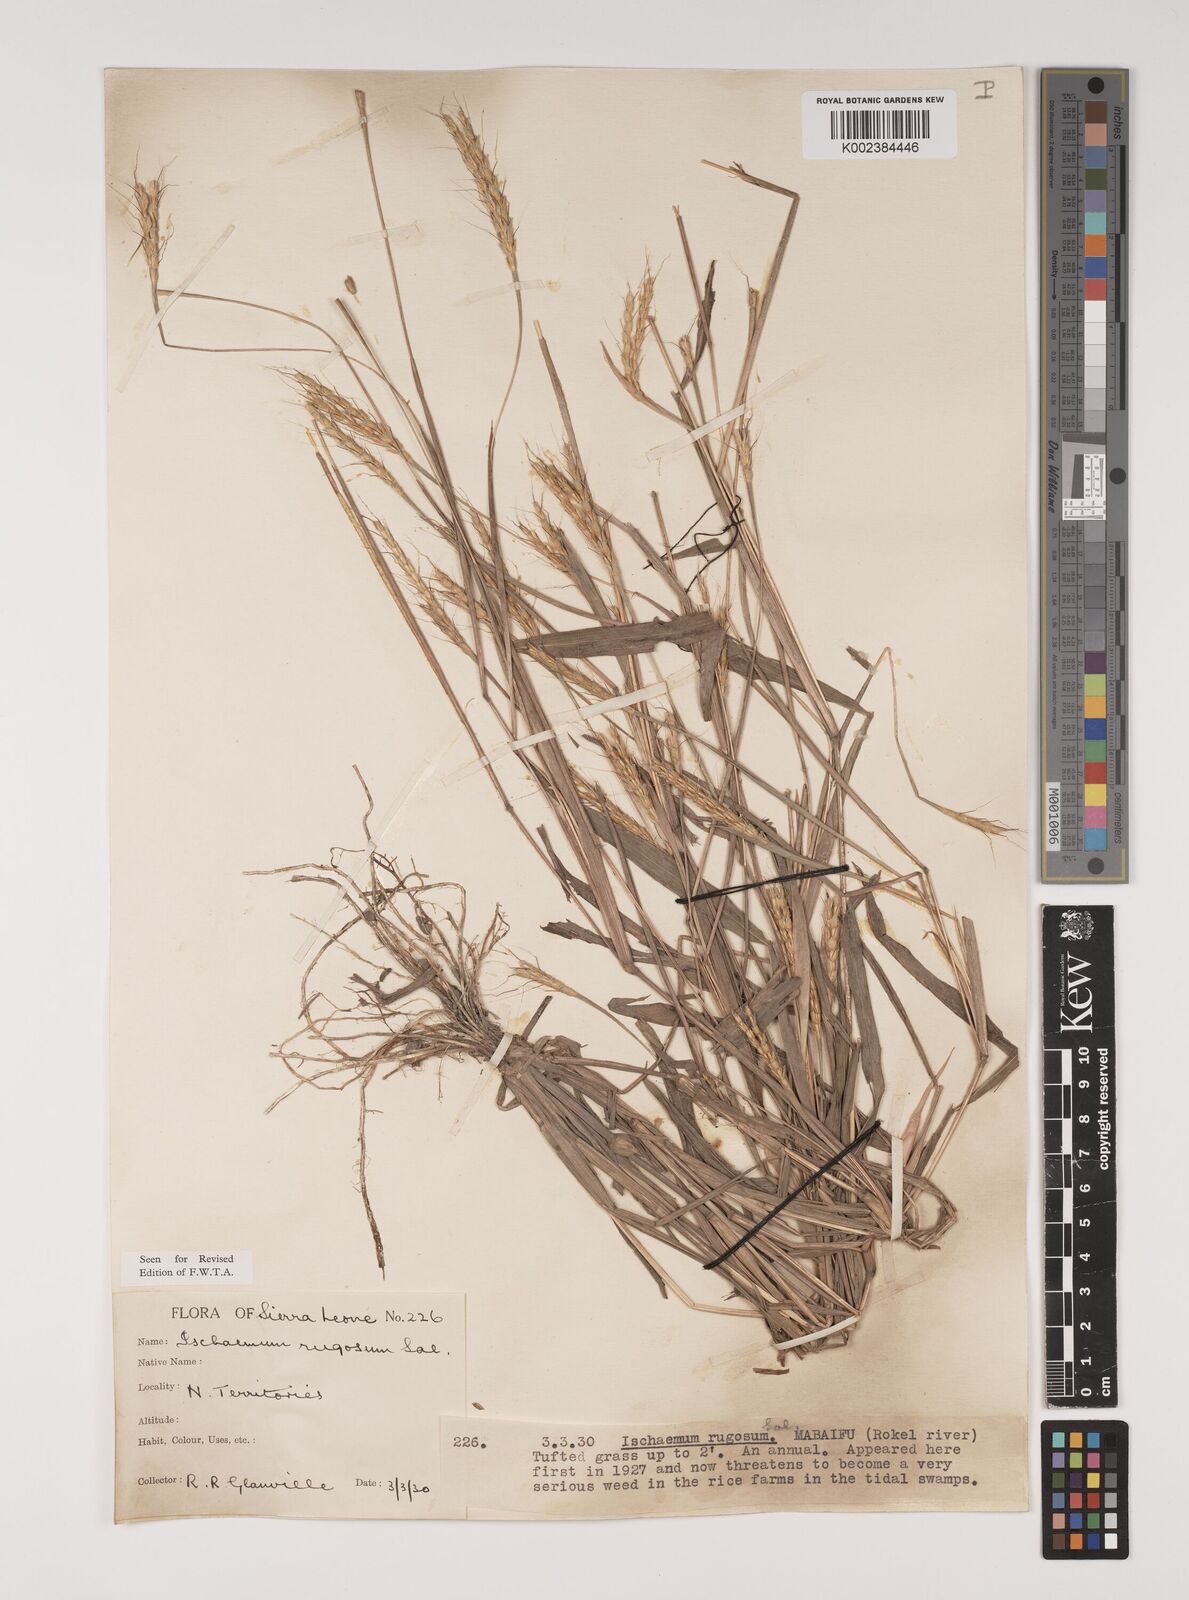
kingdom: Plantae
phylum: Tracheophyta
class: Liliopsida
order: Poales
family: Poaceae
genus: Ischaemum
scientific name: Ischaemum rugosum
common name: Saramatta grass
